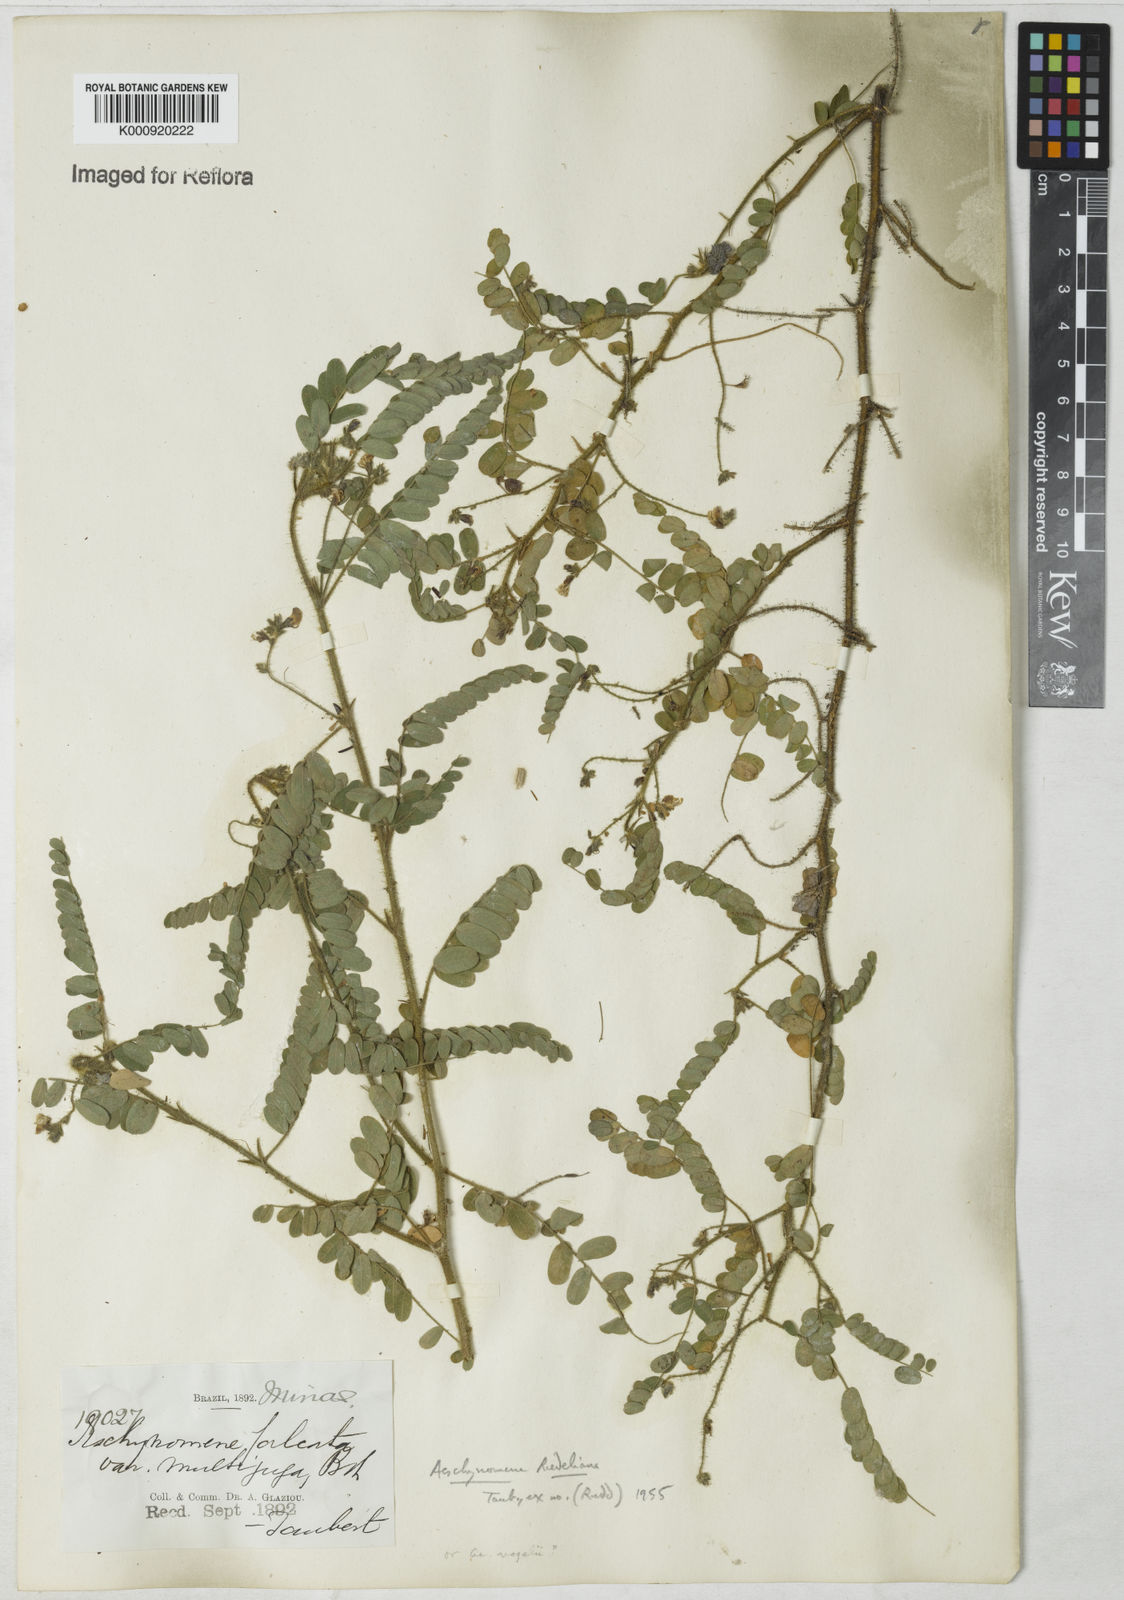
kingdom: Plantae
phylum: Tracheophyta
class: Magnoliopsida
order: Fabales
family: Fabaceae
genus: Ctenodon
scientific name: Ctenodon vogelii
